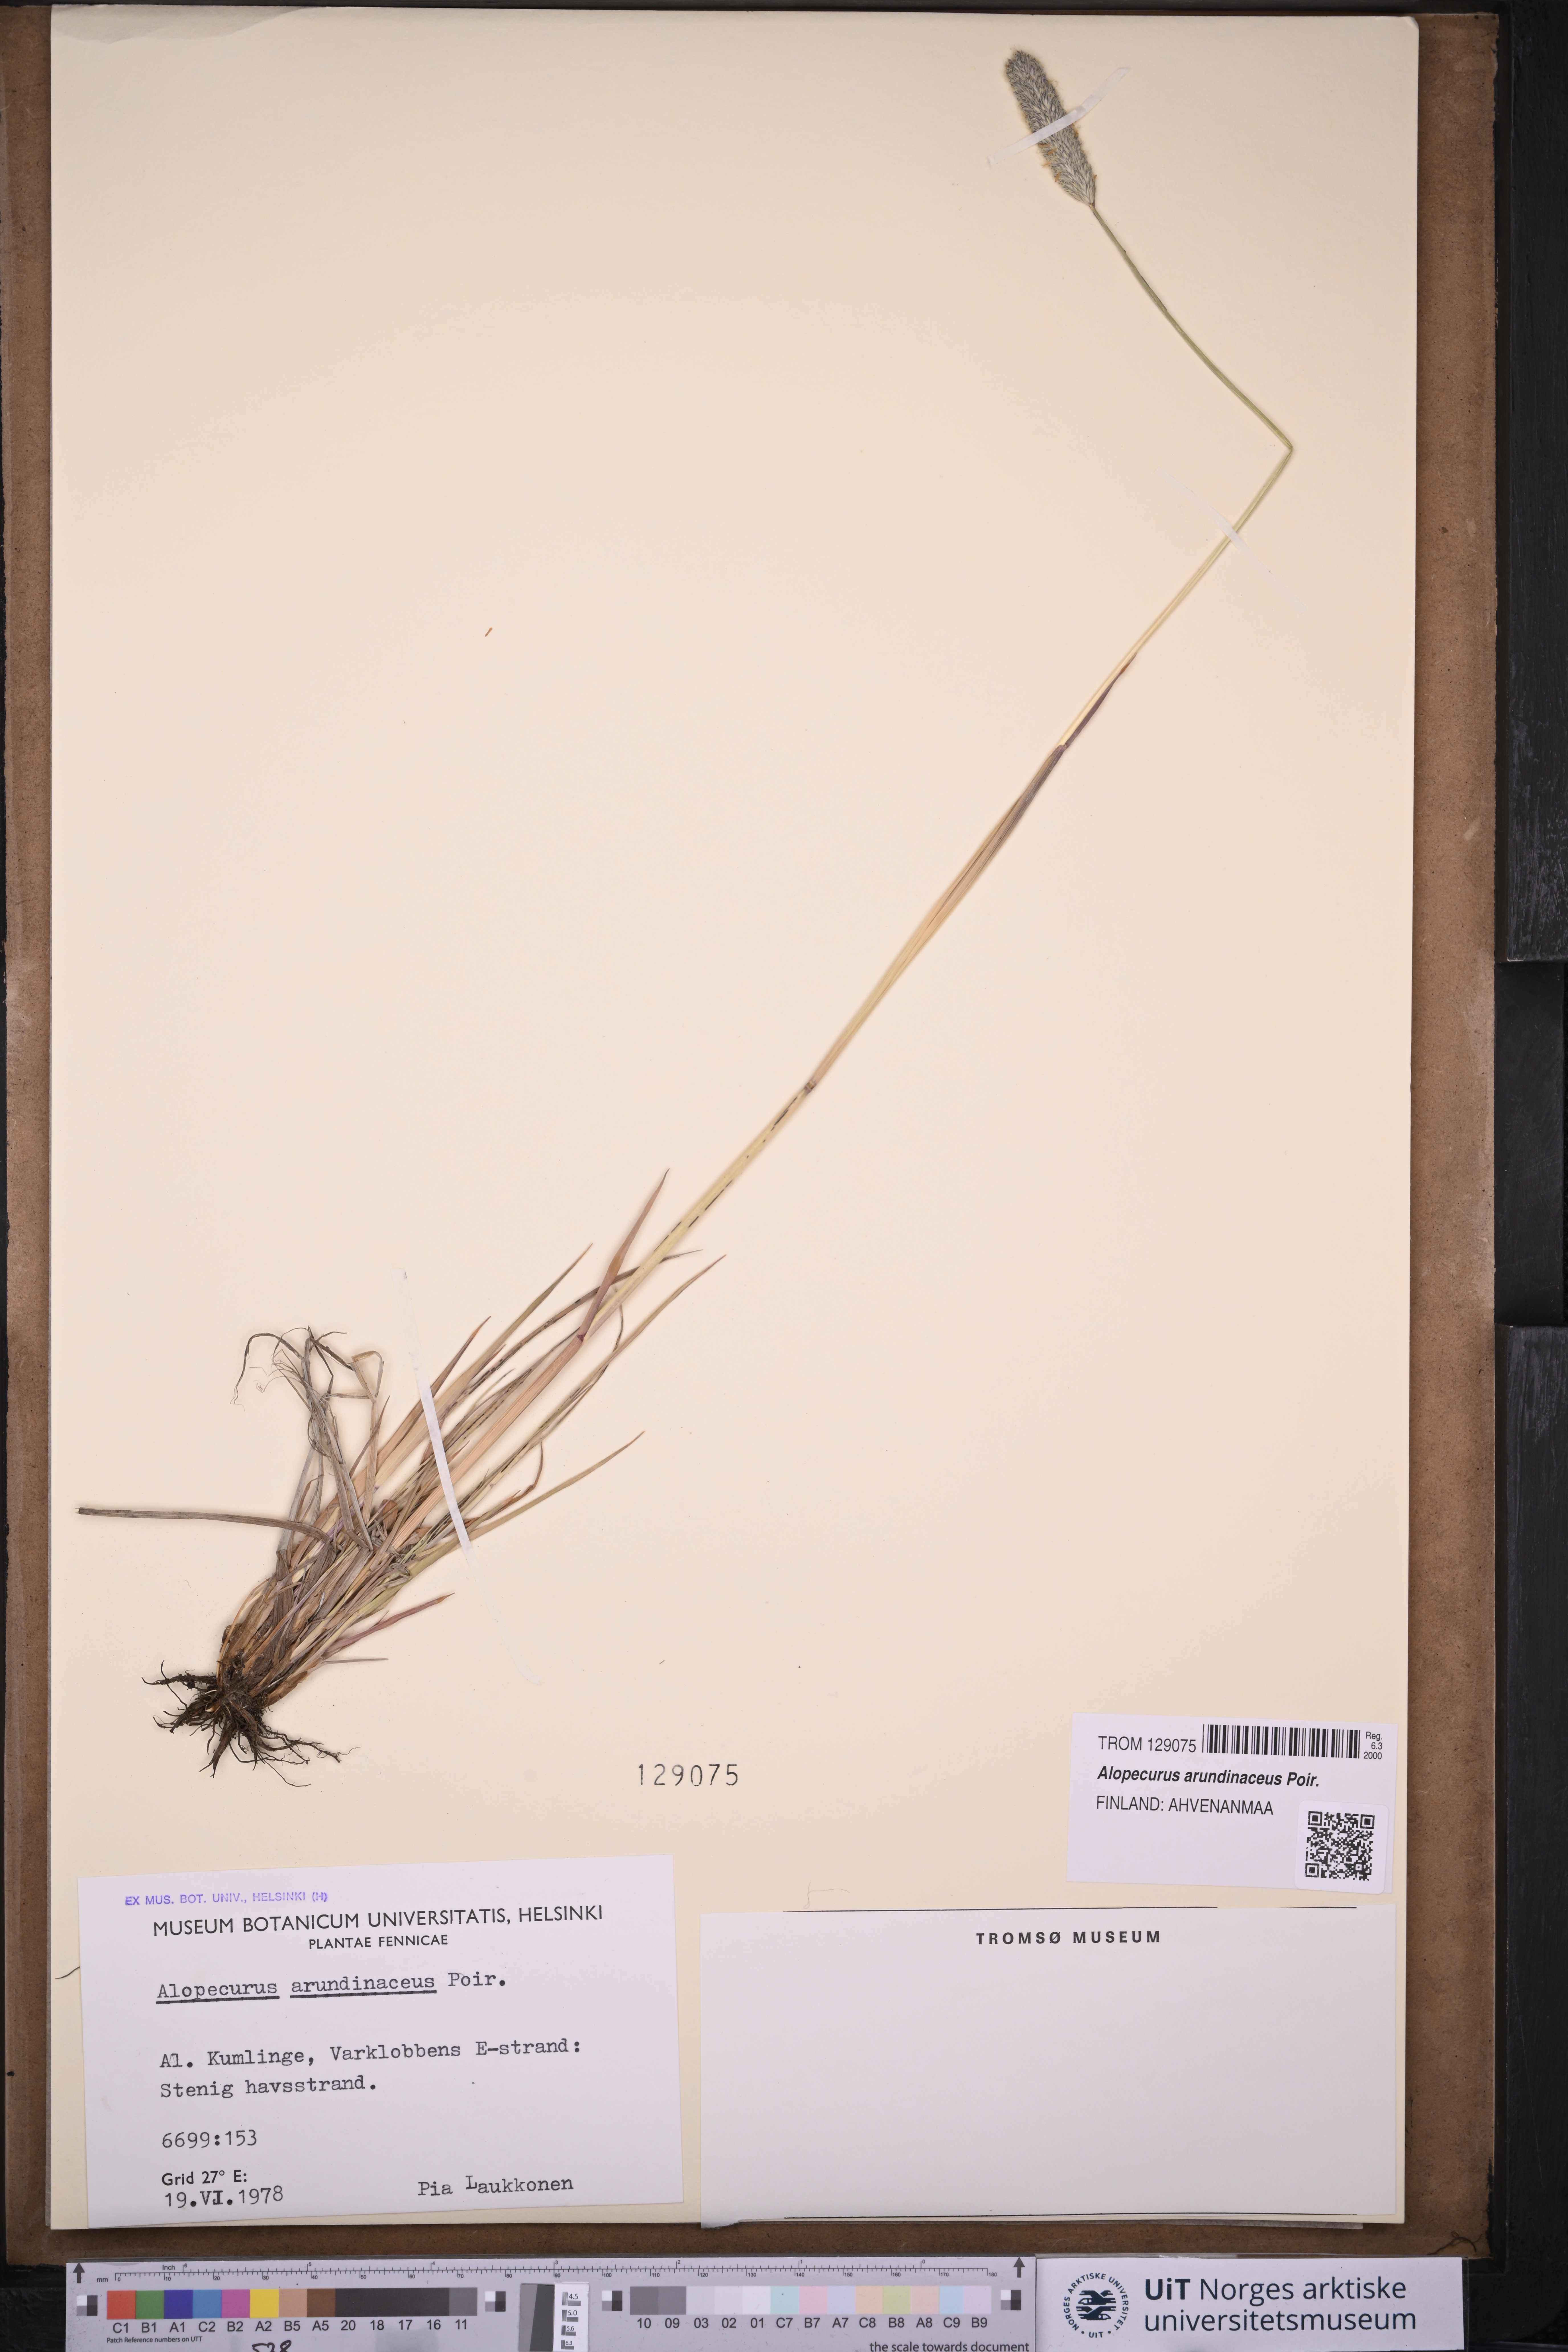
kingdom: Plantae
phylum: Tracheophyta
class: Liliopsida
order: Poales
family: Poaceae
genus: Alopecurus
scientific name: Alopecurus arundinaceus
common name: Creeping meadow foxtail
